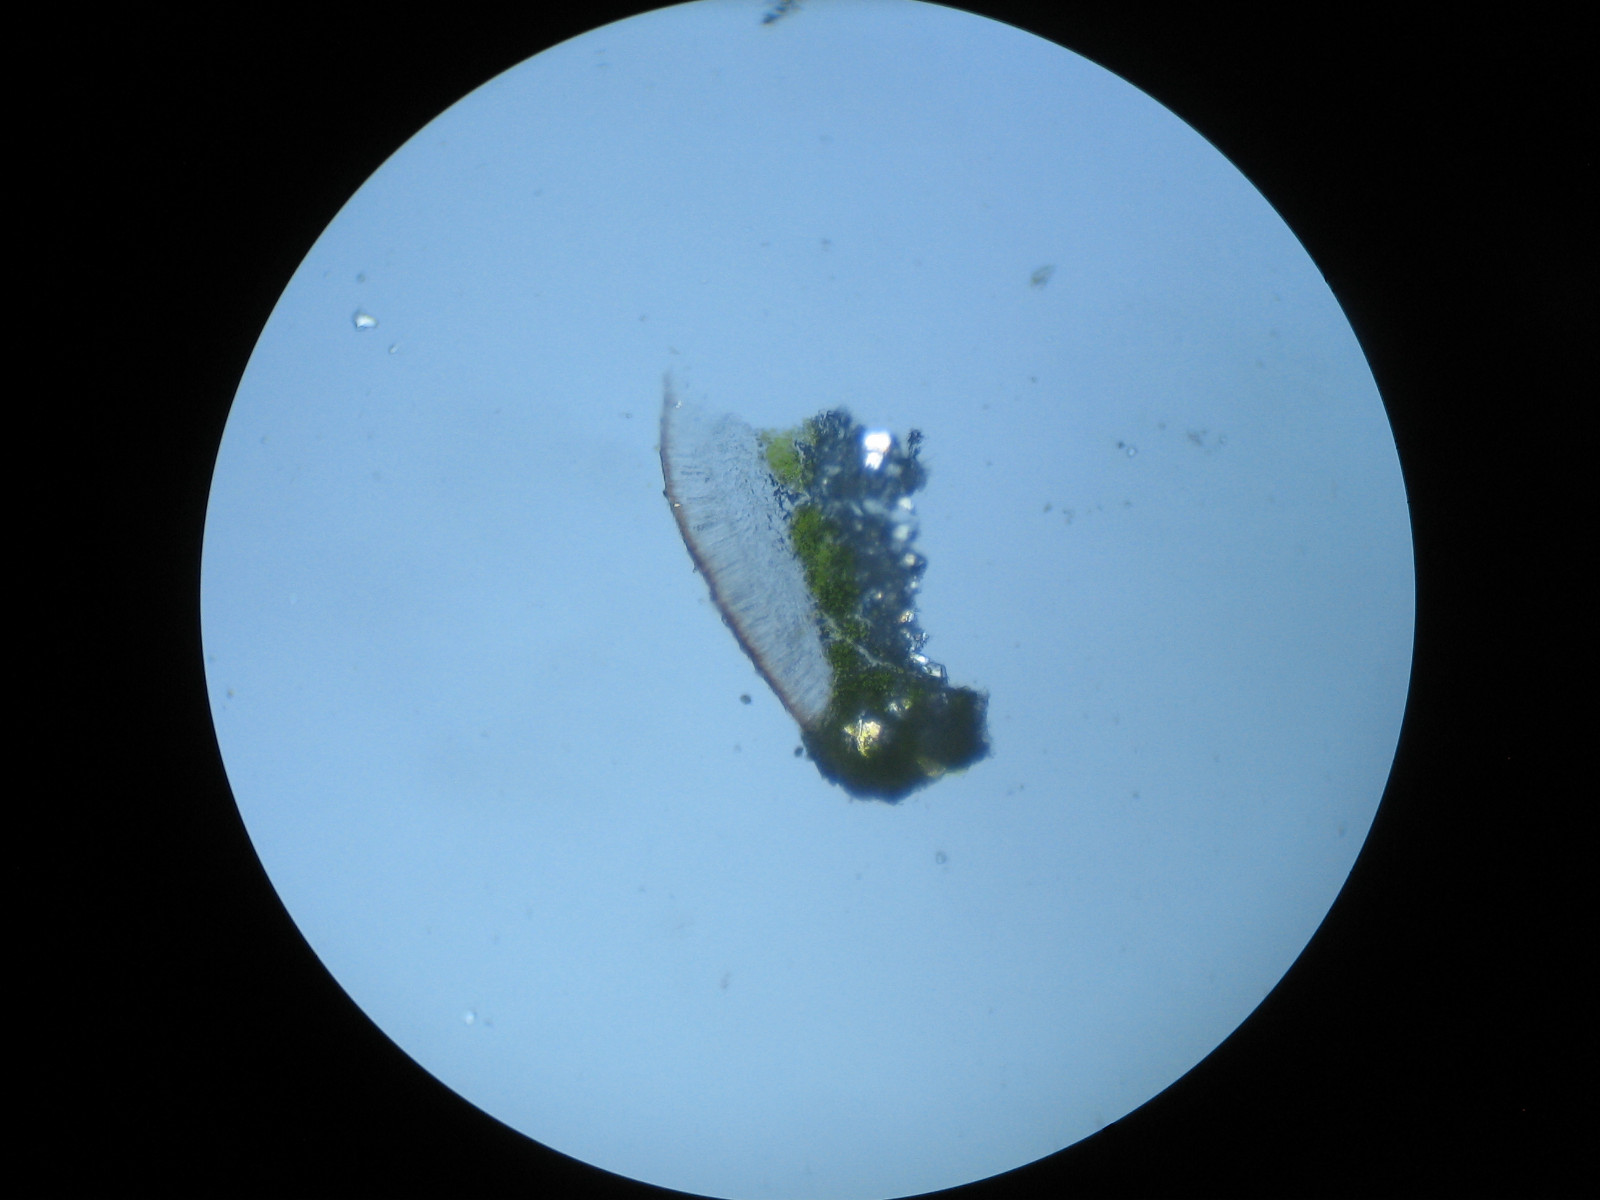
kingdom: Fungi
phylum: Ascomycota
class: Lecanoromycetes
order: Lecanorales
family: Lecanoraceae
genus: Lecanora
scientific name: Lecanora argentata
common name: sølv-kantskivelav
